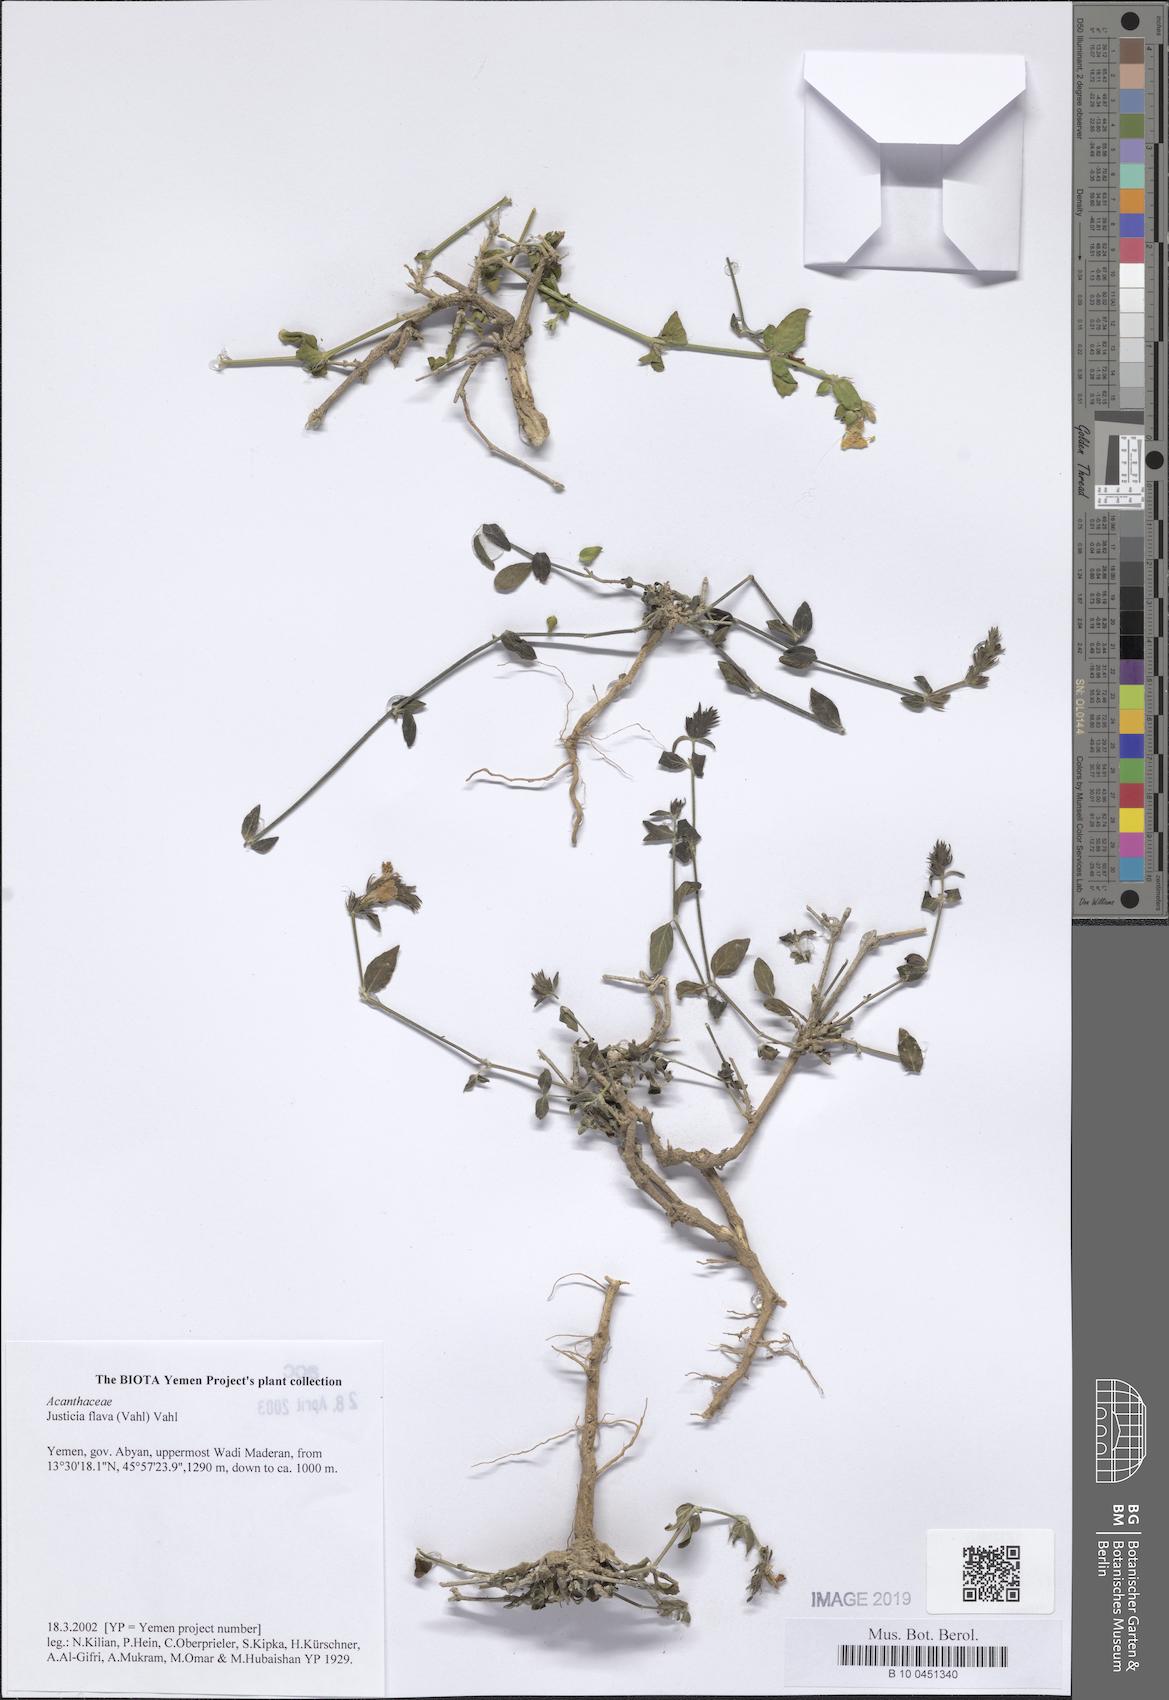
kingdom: Plantae
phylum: Tracheophyta
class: Magnoliopsida
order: Lamiales
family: Acanthaceae
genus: Justicia
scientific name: Justicia flava
